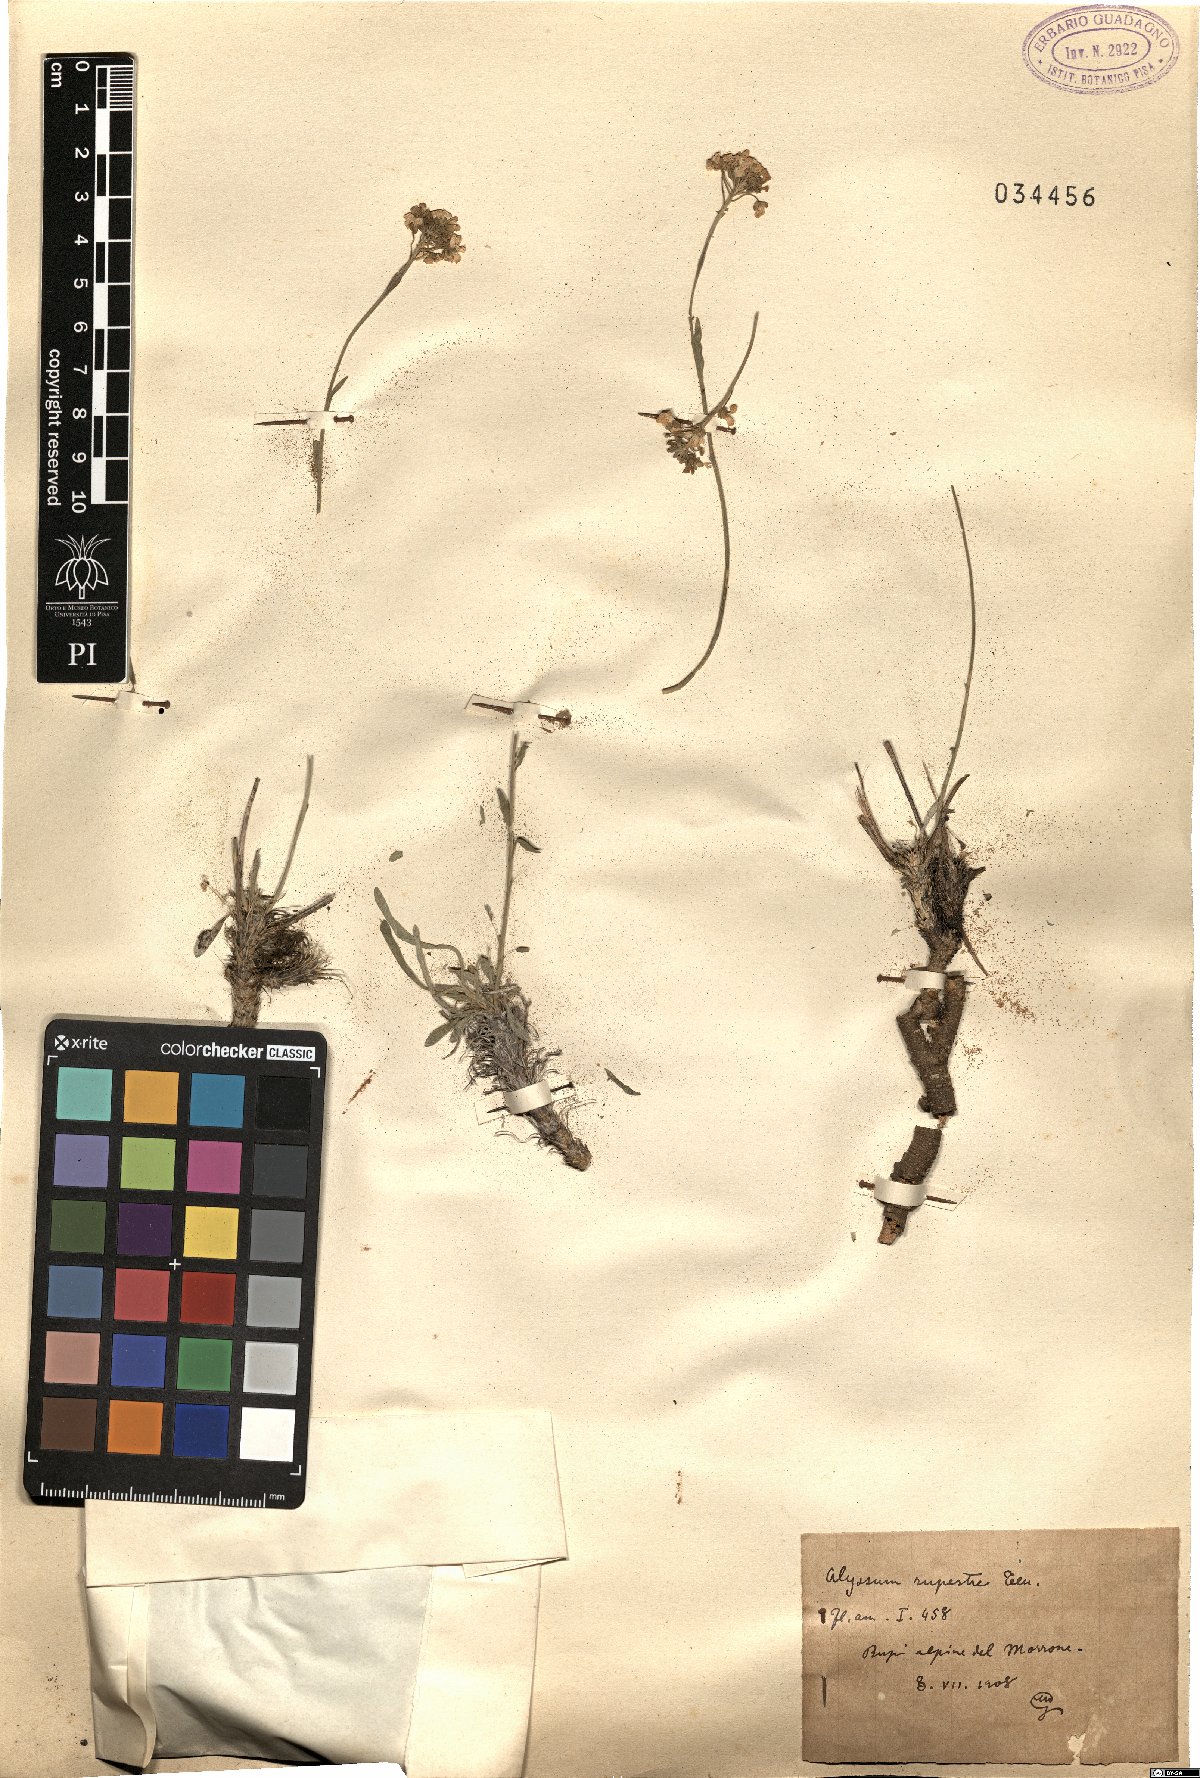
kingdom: Plantae
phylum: Tracheophyta
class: Magnoliopsida
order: Brassicales
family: Brassicaceae
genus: Phyllolepidium
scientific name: Phyllolepidium rupestre
